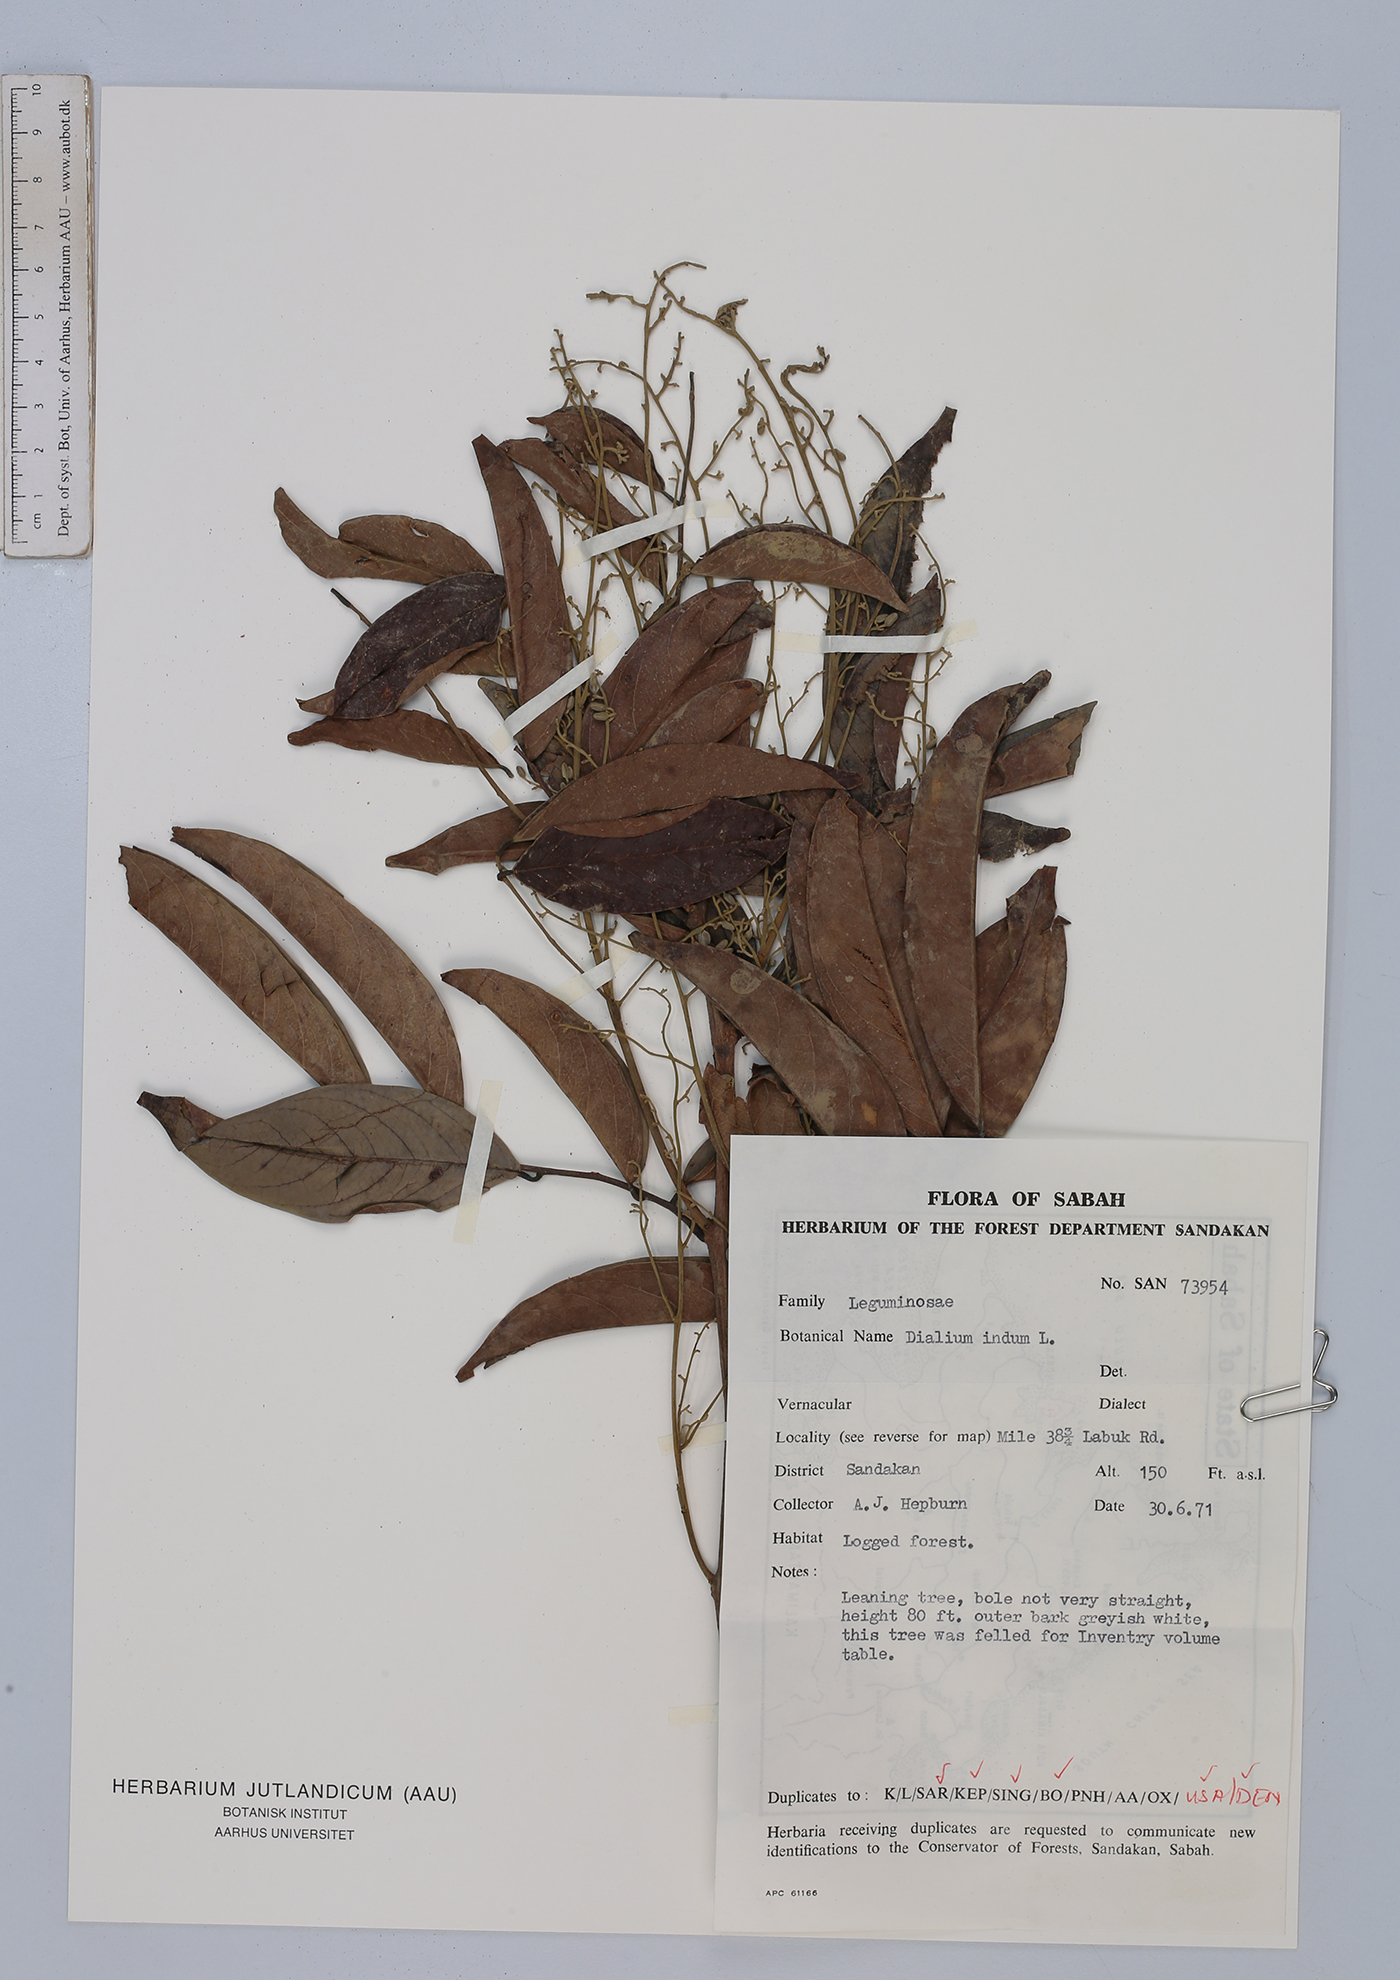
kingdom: Plantae
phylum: Tracheophyta
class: Magnoliopsida
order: Fabales
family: Fabaceae
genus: Dialium
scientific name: Dialium indum
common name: Tamarind-plum
